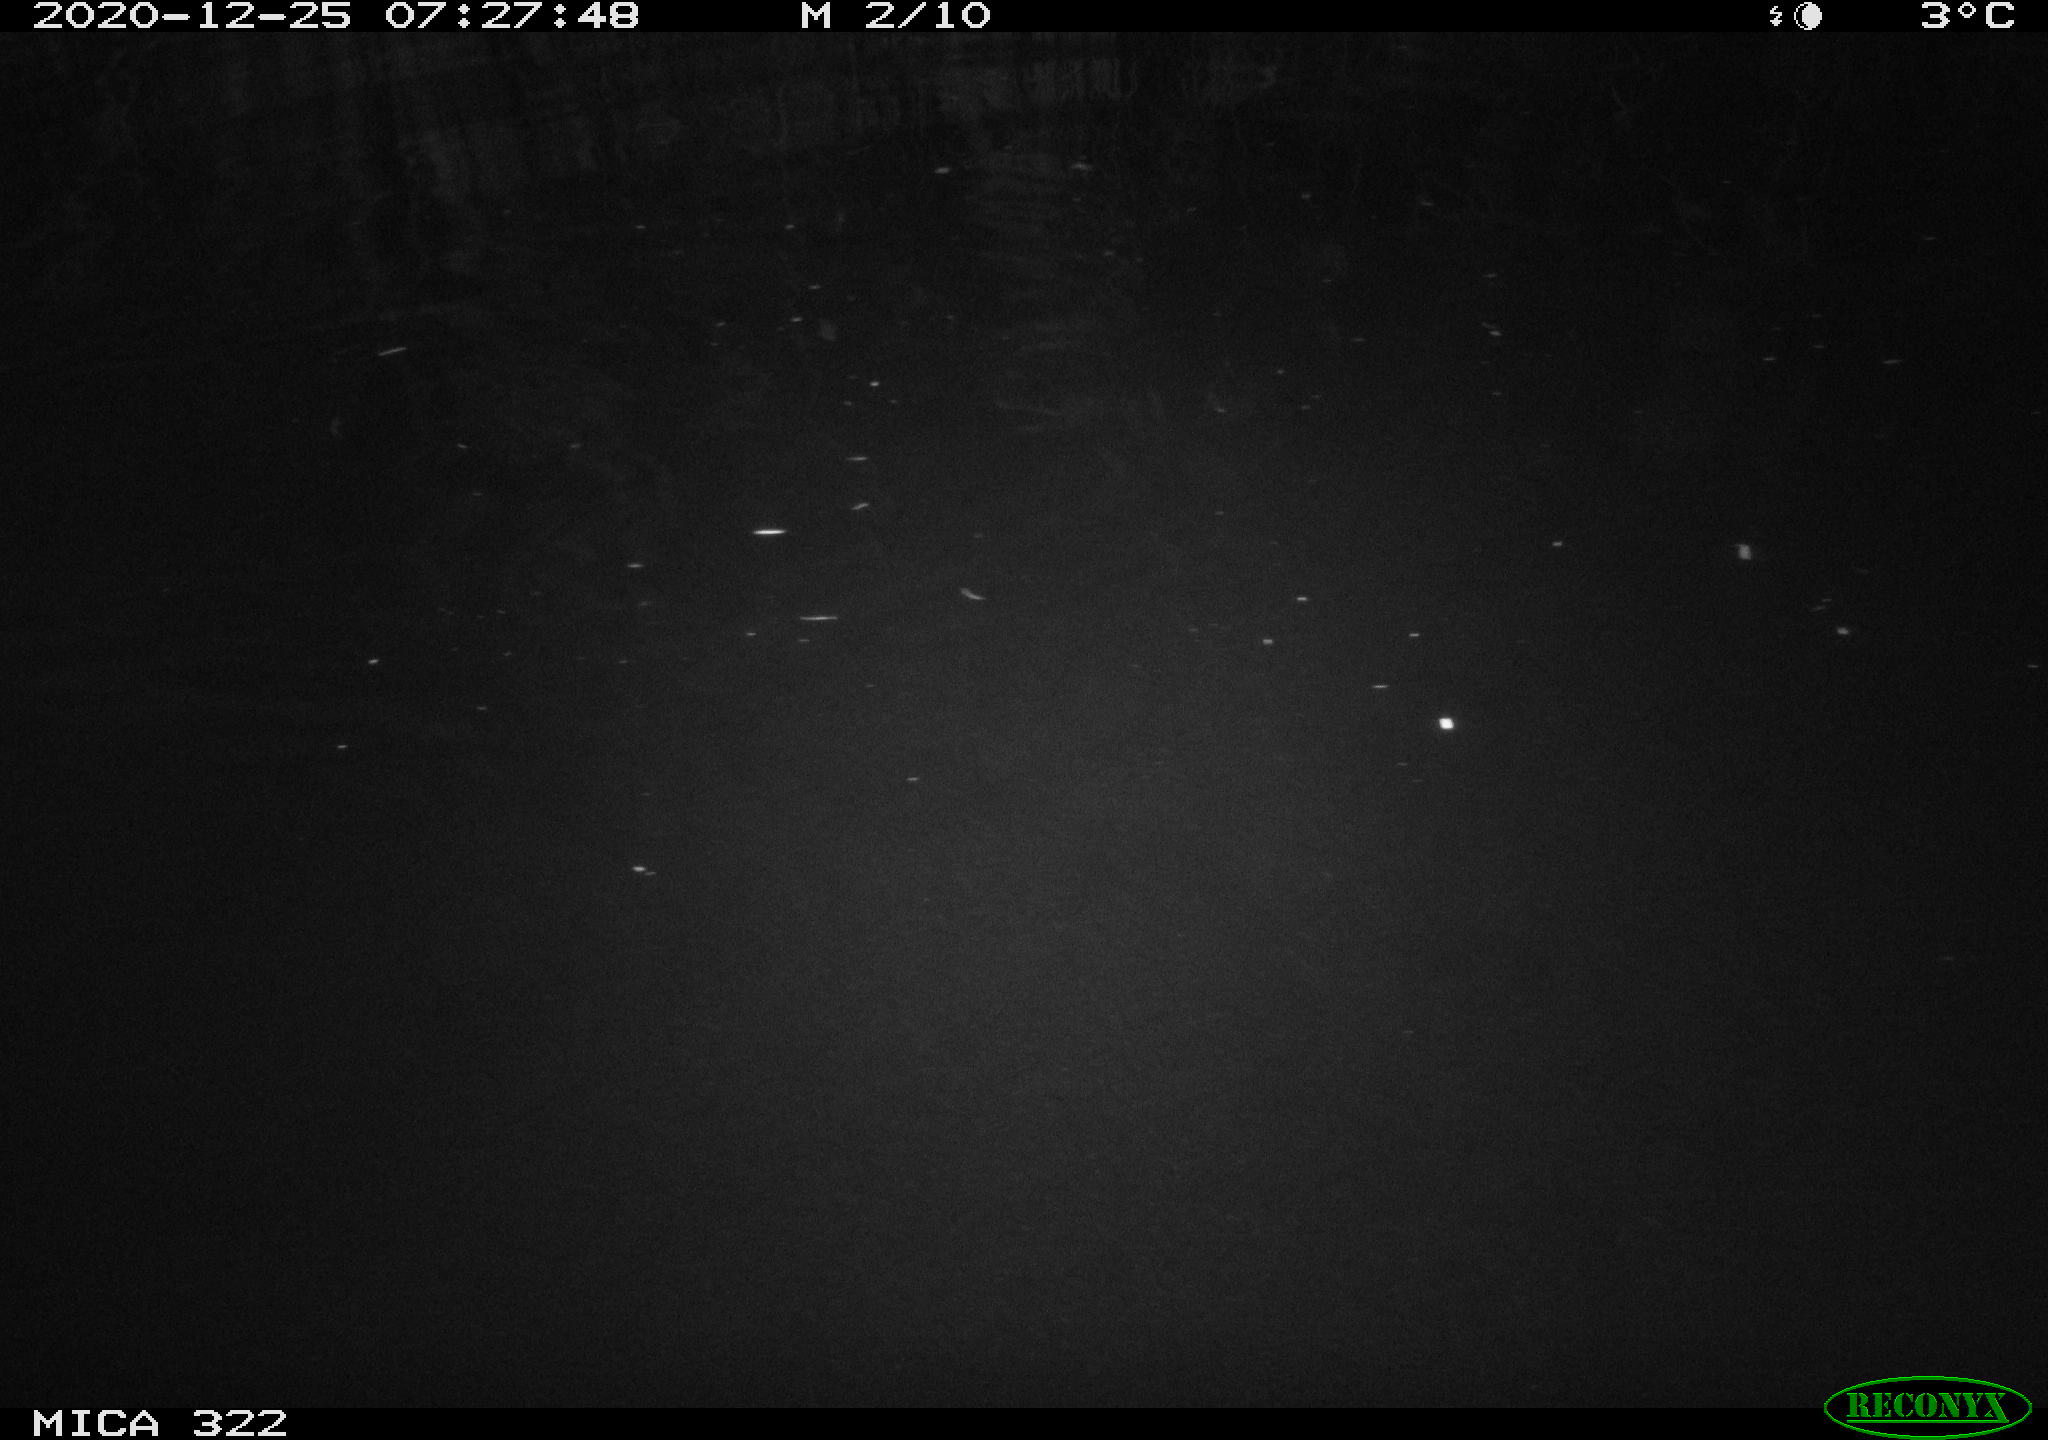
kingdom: Animalia
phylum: Chordata
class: Aves
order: Anseriformes
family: Anatidae
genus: Anas
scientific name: Anas platyrhynchos
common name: Mallard
